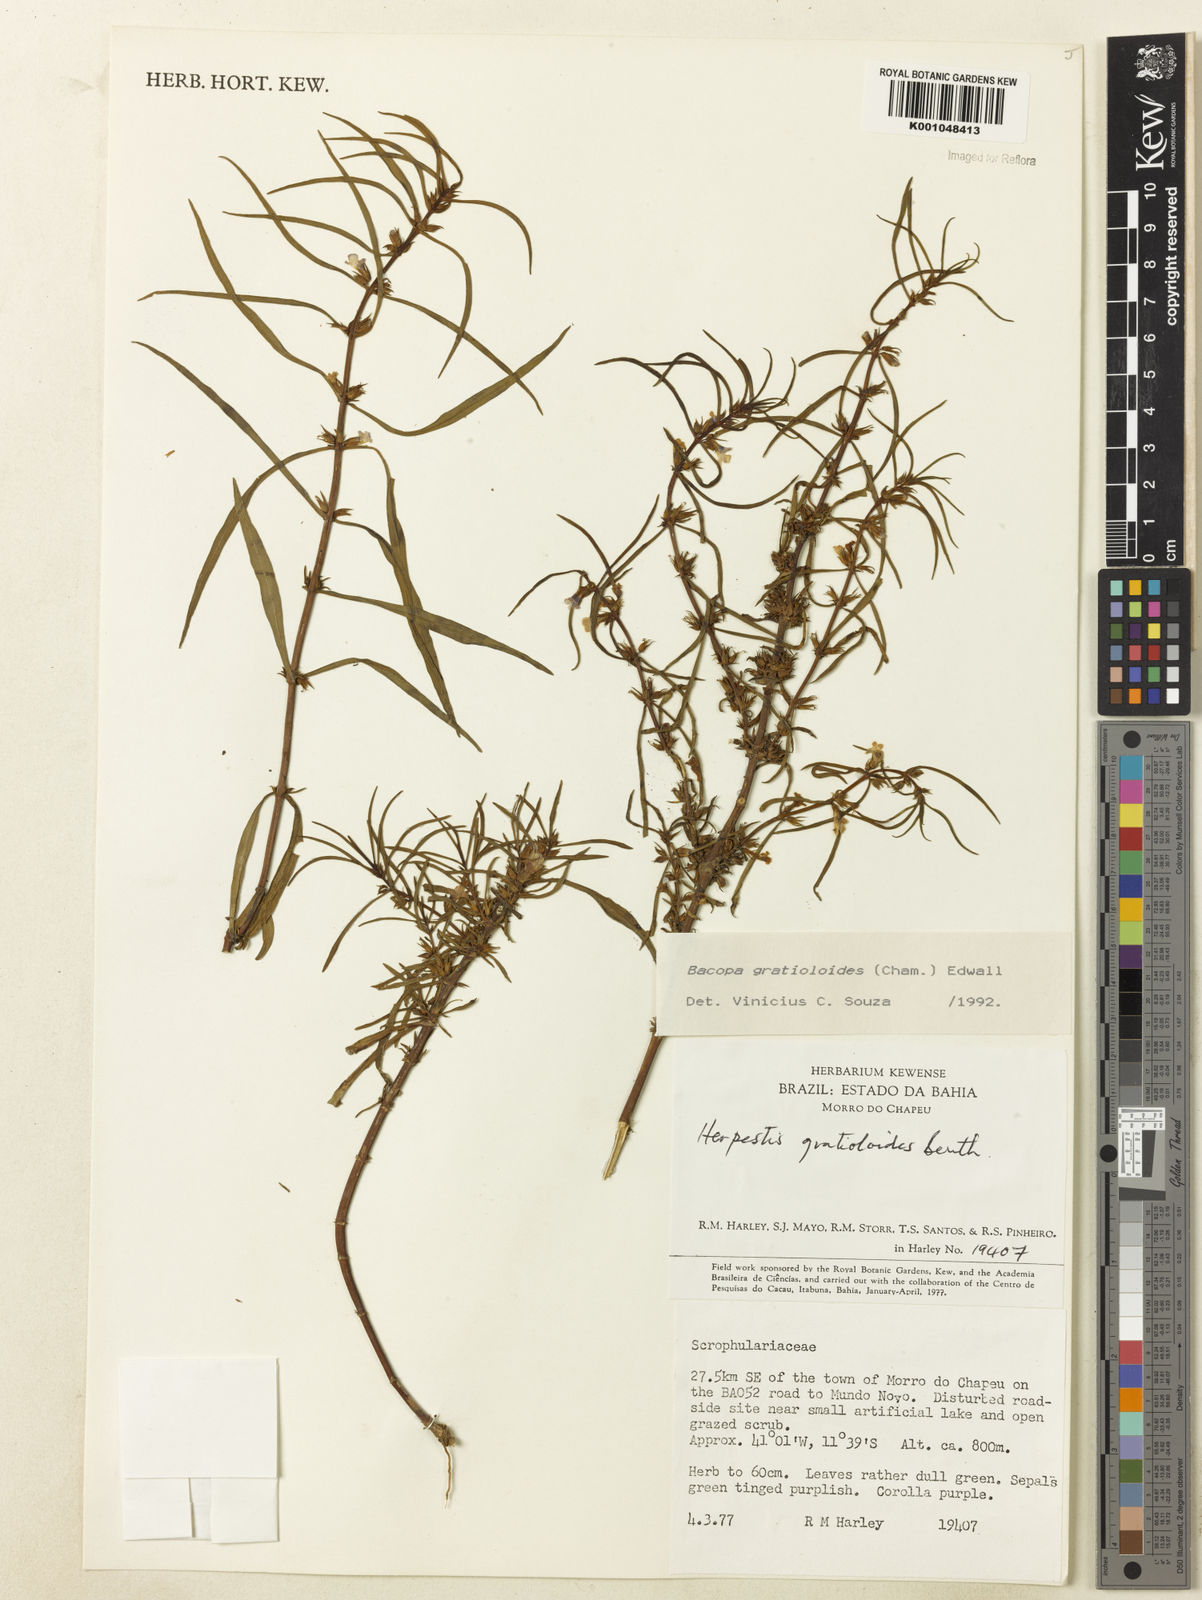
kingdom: Plantae
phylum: Tracheophyta
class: Magnoliopsida
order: Lamiales
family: Plantaginaceae
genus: Bacopa
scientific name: Bacopa
